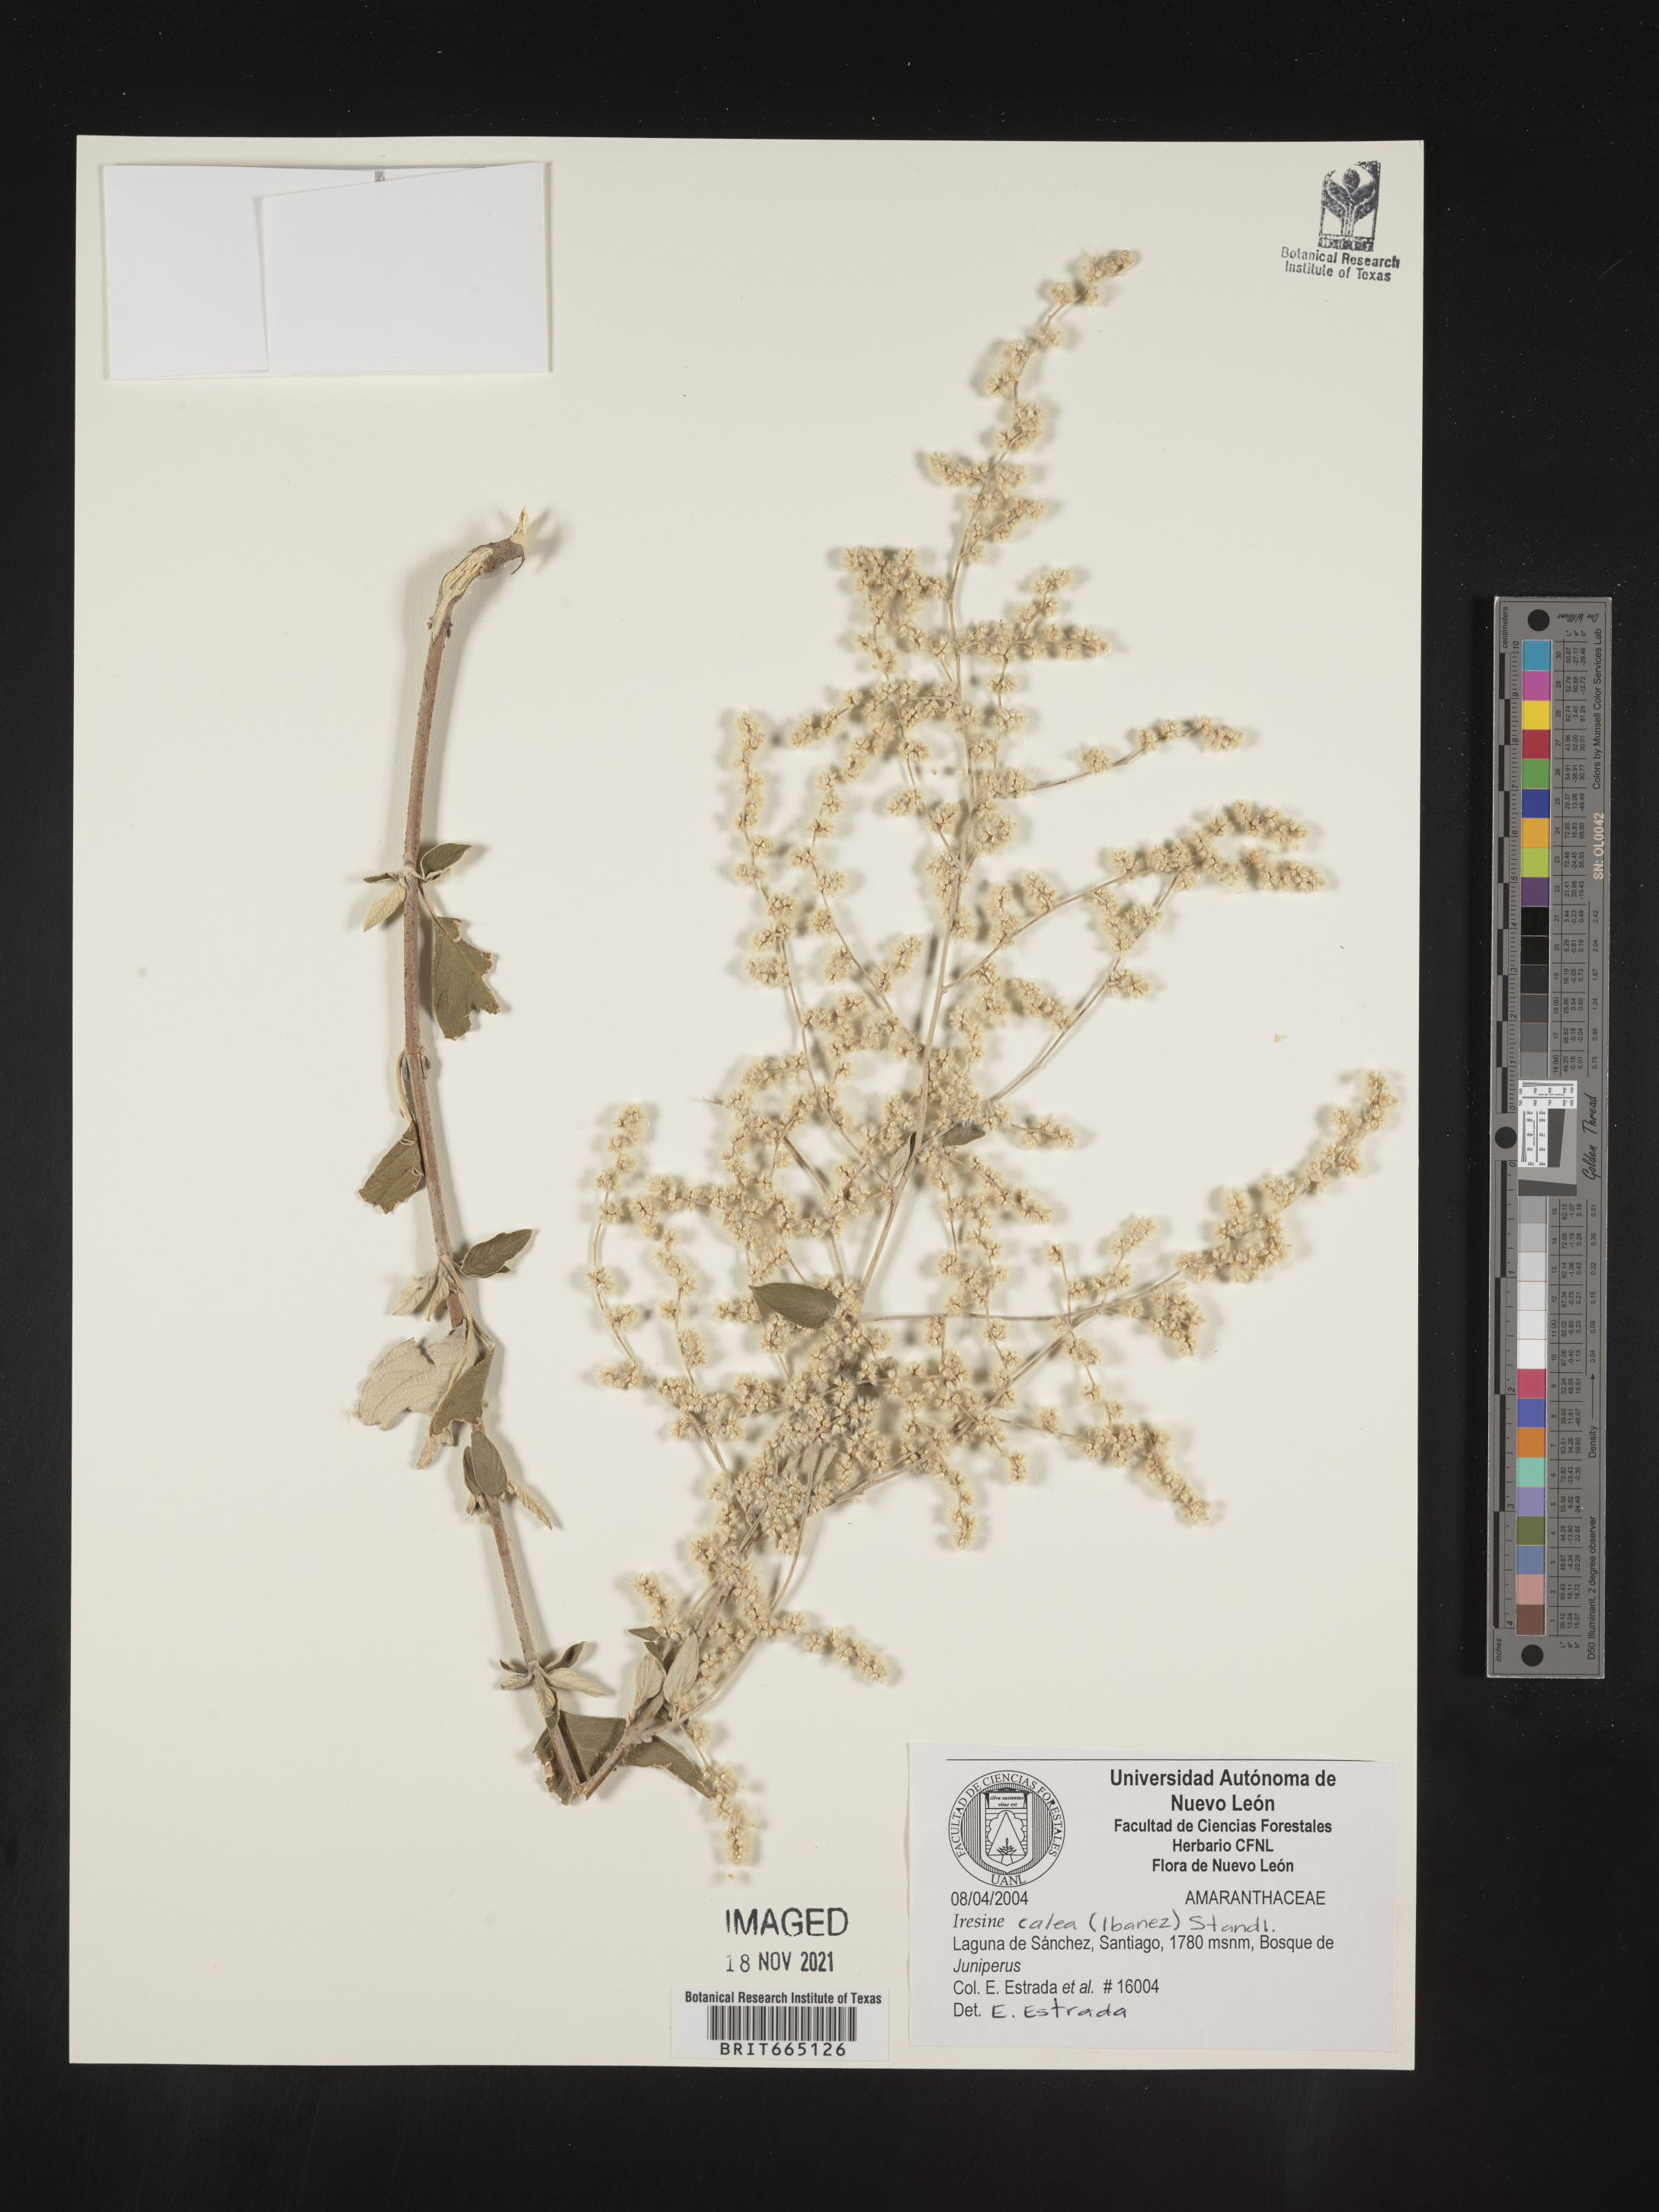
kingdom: Plantae
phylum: Tracheophyta
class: Magnoliopsida
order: Caryophyllales
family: Amaranthaceae
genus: Iresine
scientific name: Iresine
